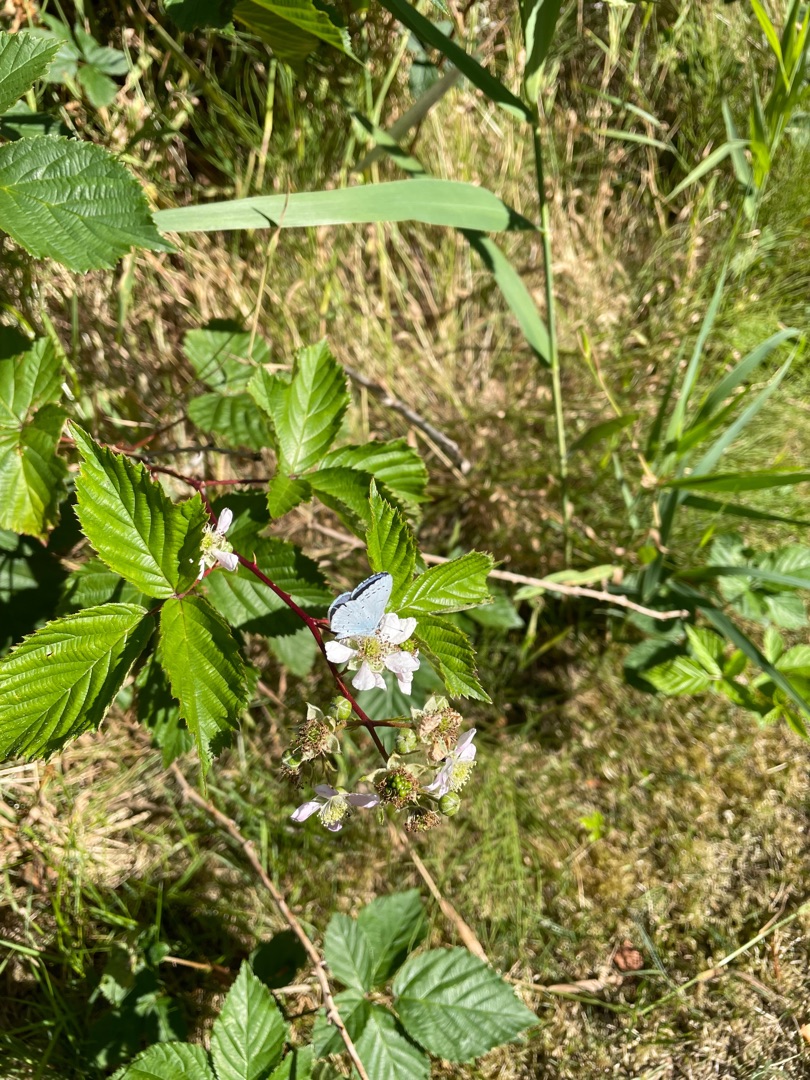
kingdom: Animalia
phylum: Arthropoda
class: Insecta
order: Lepidoptera
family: Lycaenidae
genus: Celastrina
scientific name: Celastrina argiolus
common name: Skovblåfugl
